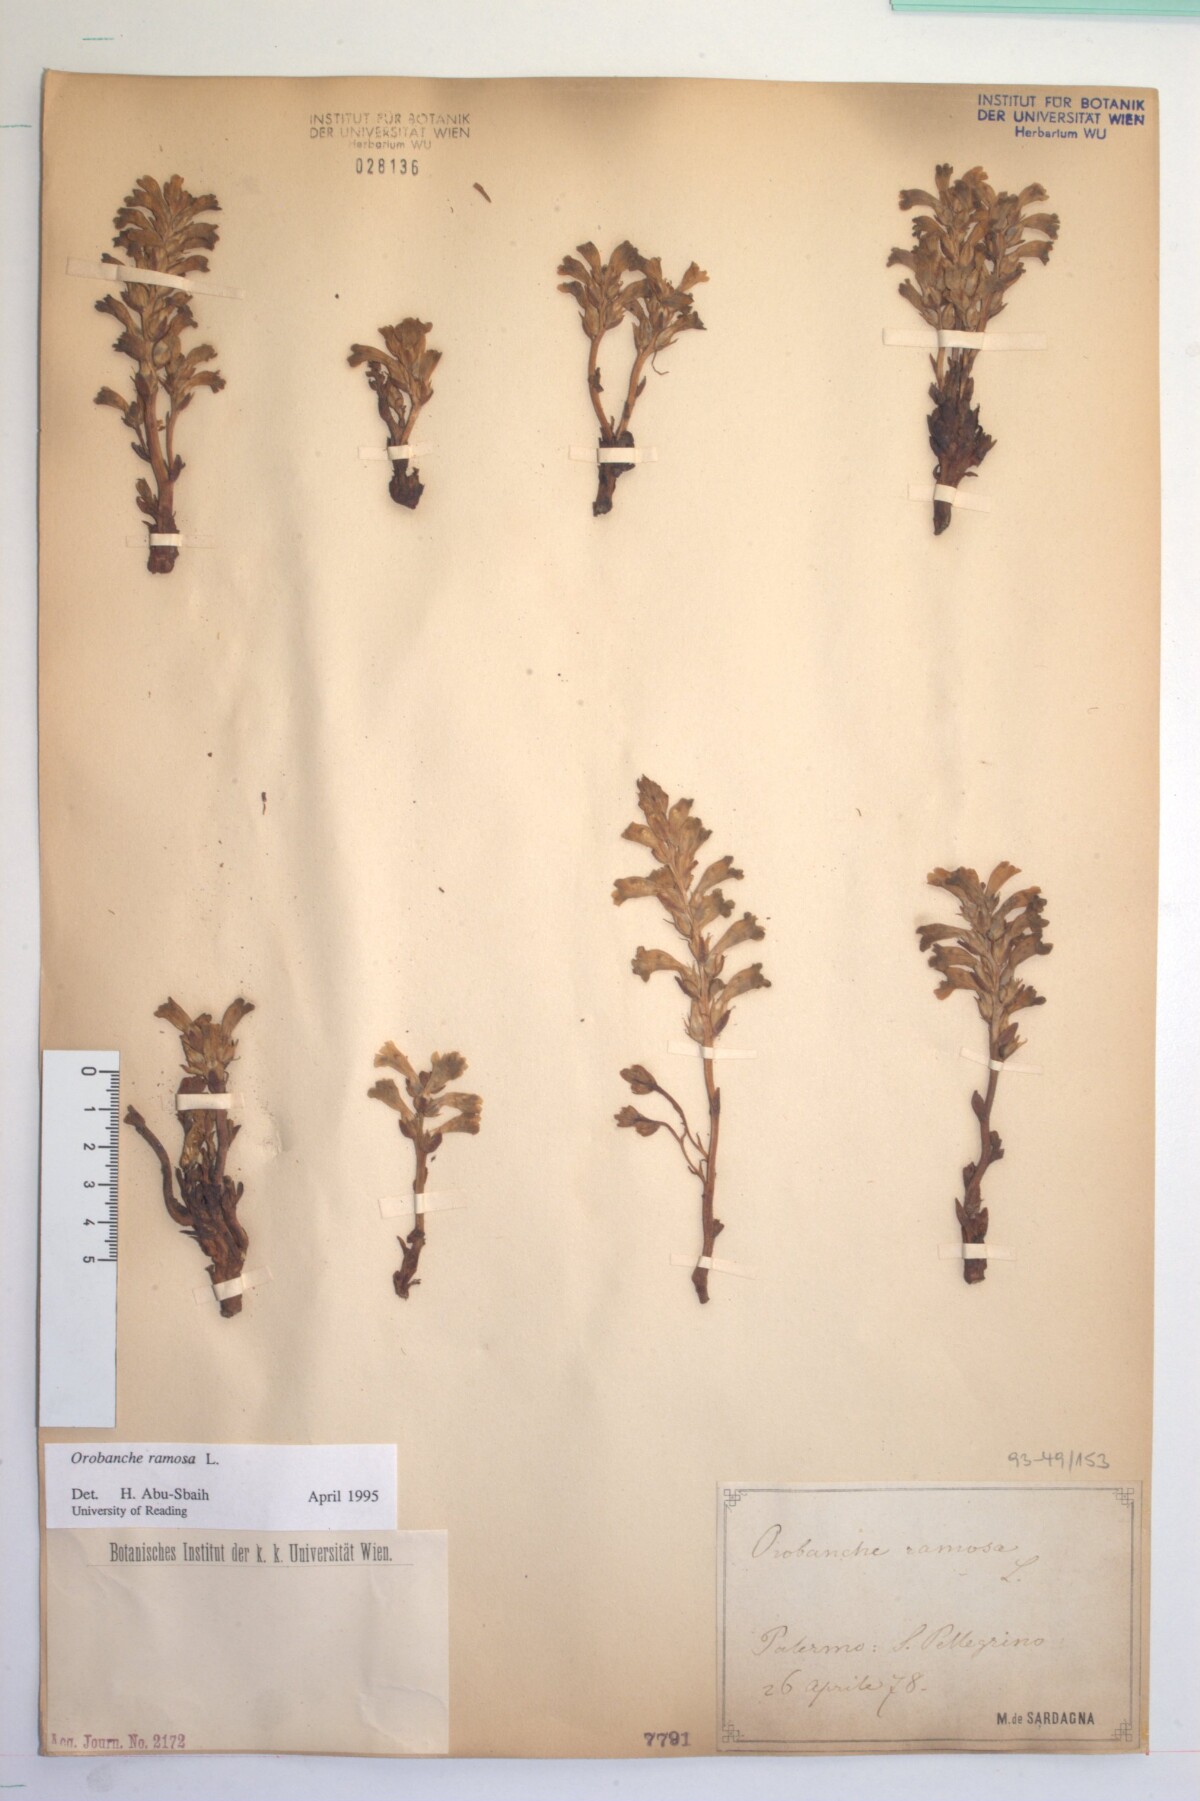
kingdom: Plantae
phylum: Tracheophyta
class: Magnoliopsida
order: Lamiales
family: Orobanchaceae
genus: Phelipanche
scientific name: Phelipanche ramosa
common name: Branched broomrape
